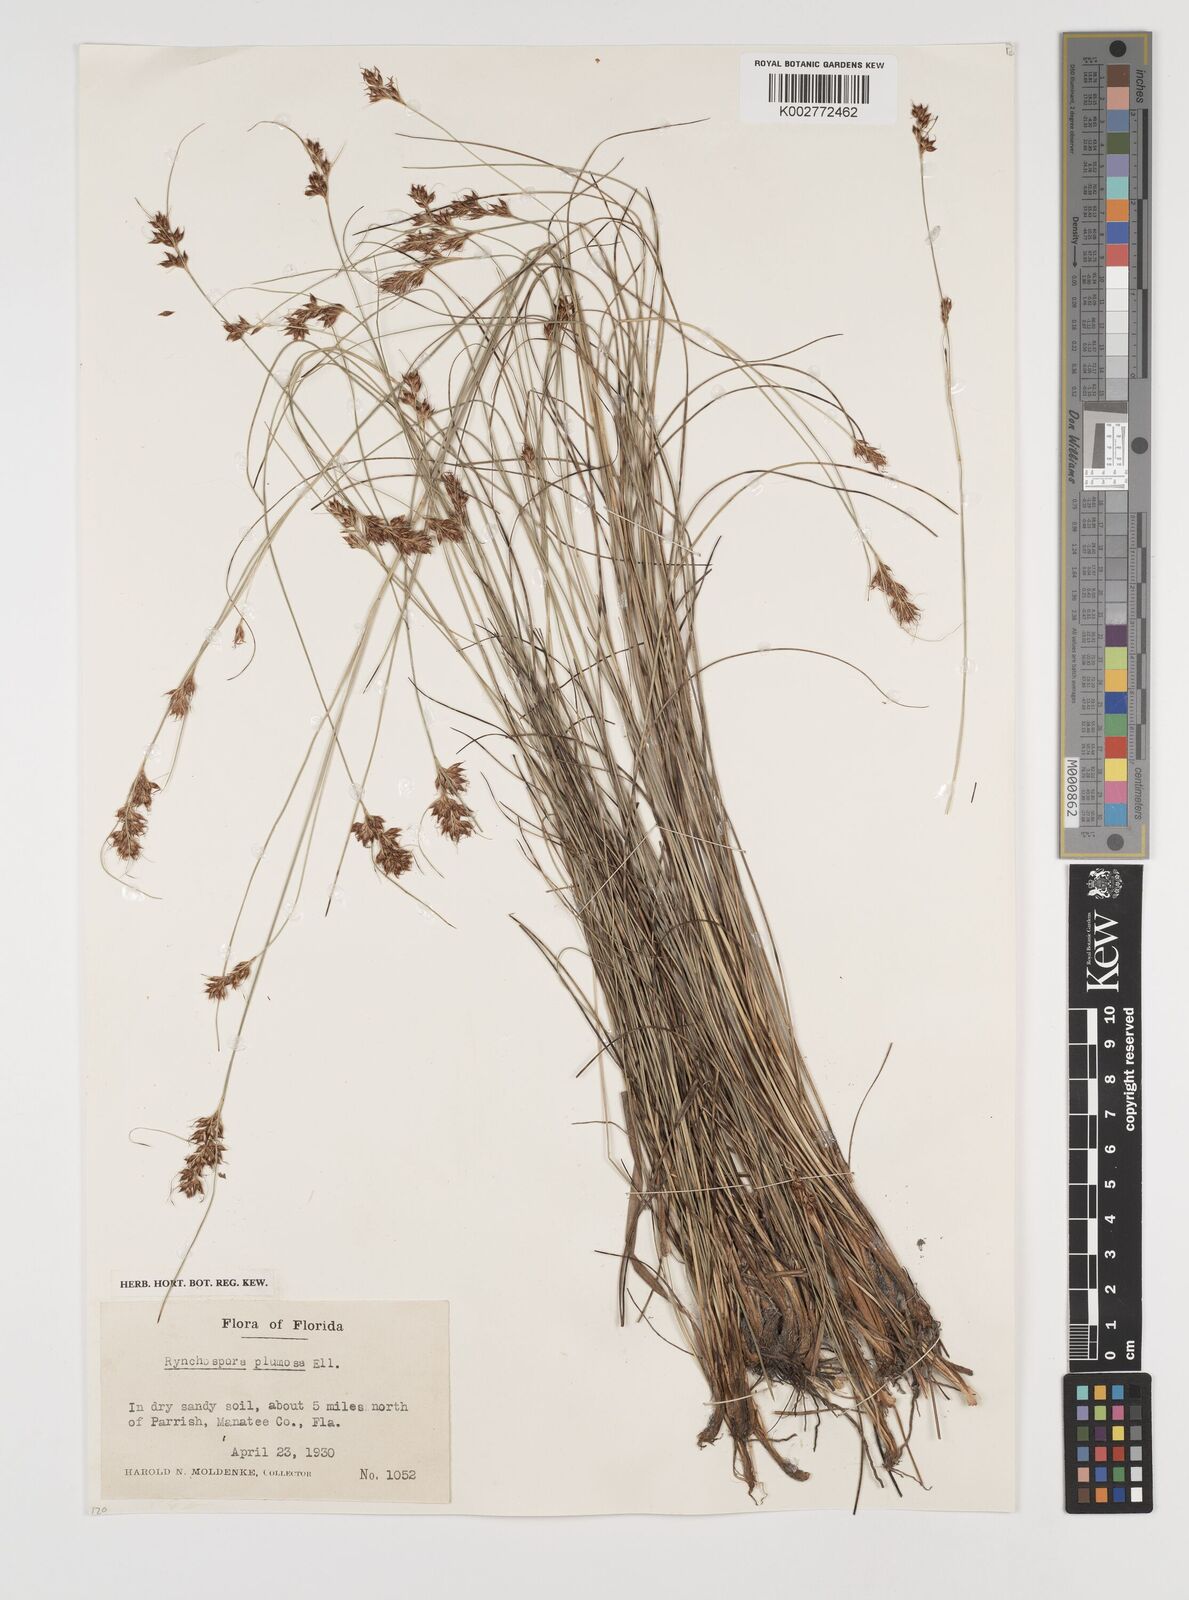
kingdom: Plantae
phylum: Tracheophyta
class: Liliopsida
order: Poales
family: Cyperaceae
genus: Rhynchospora
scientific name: Rhynchospora plumosa
